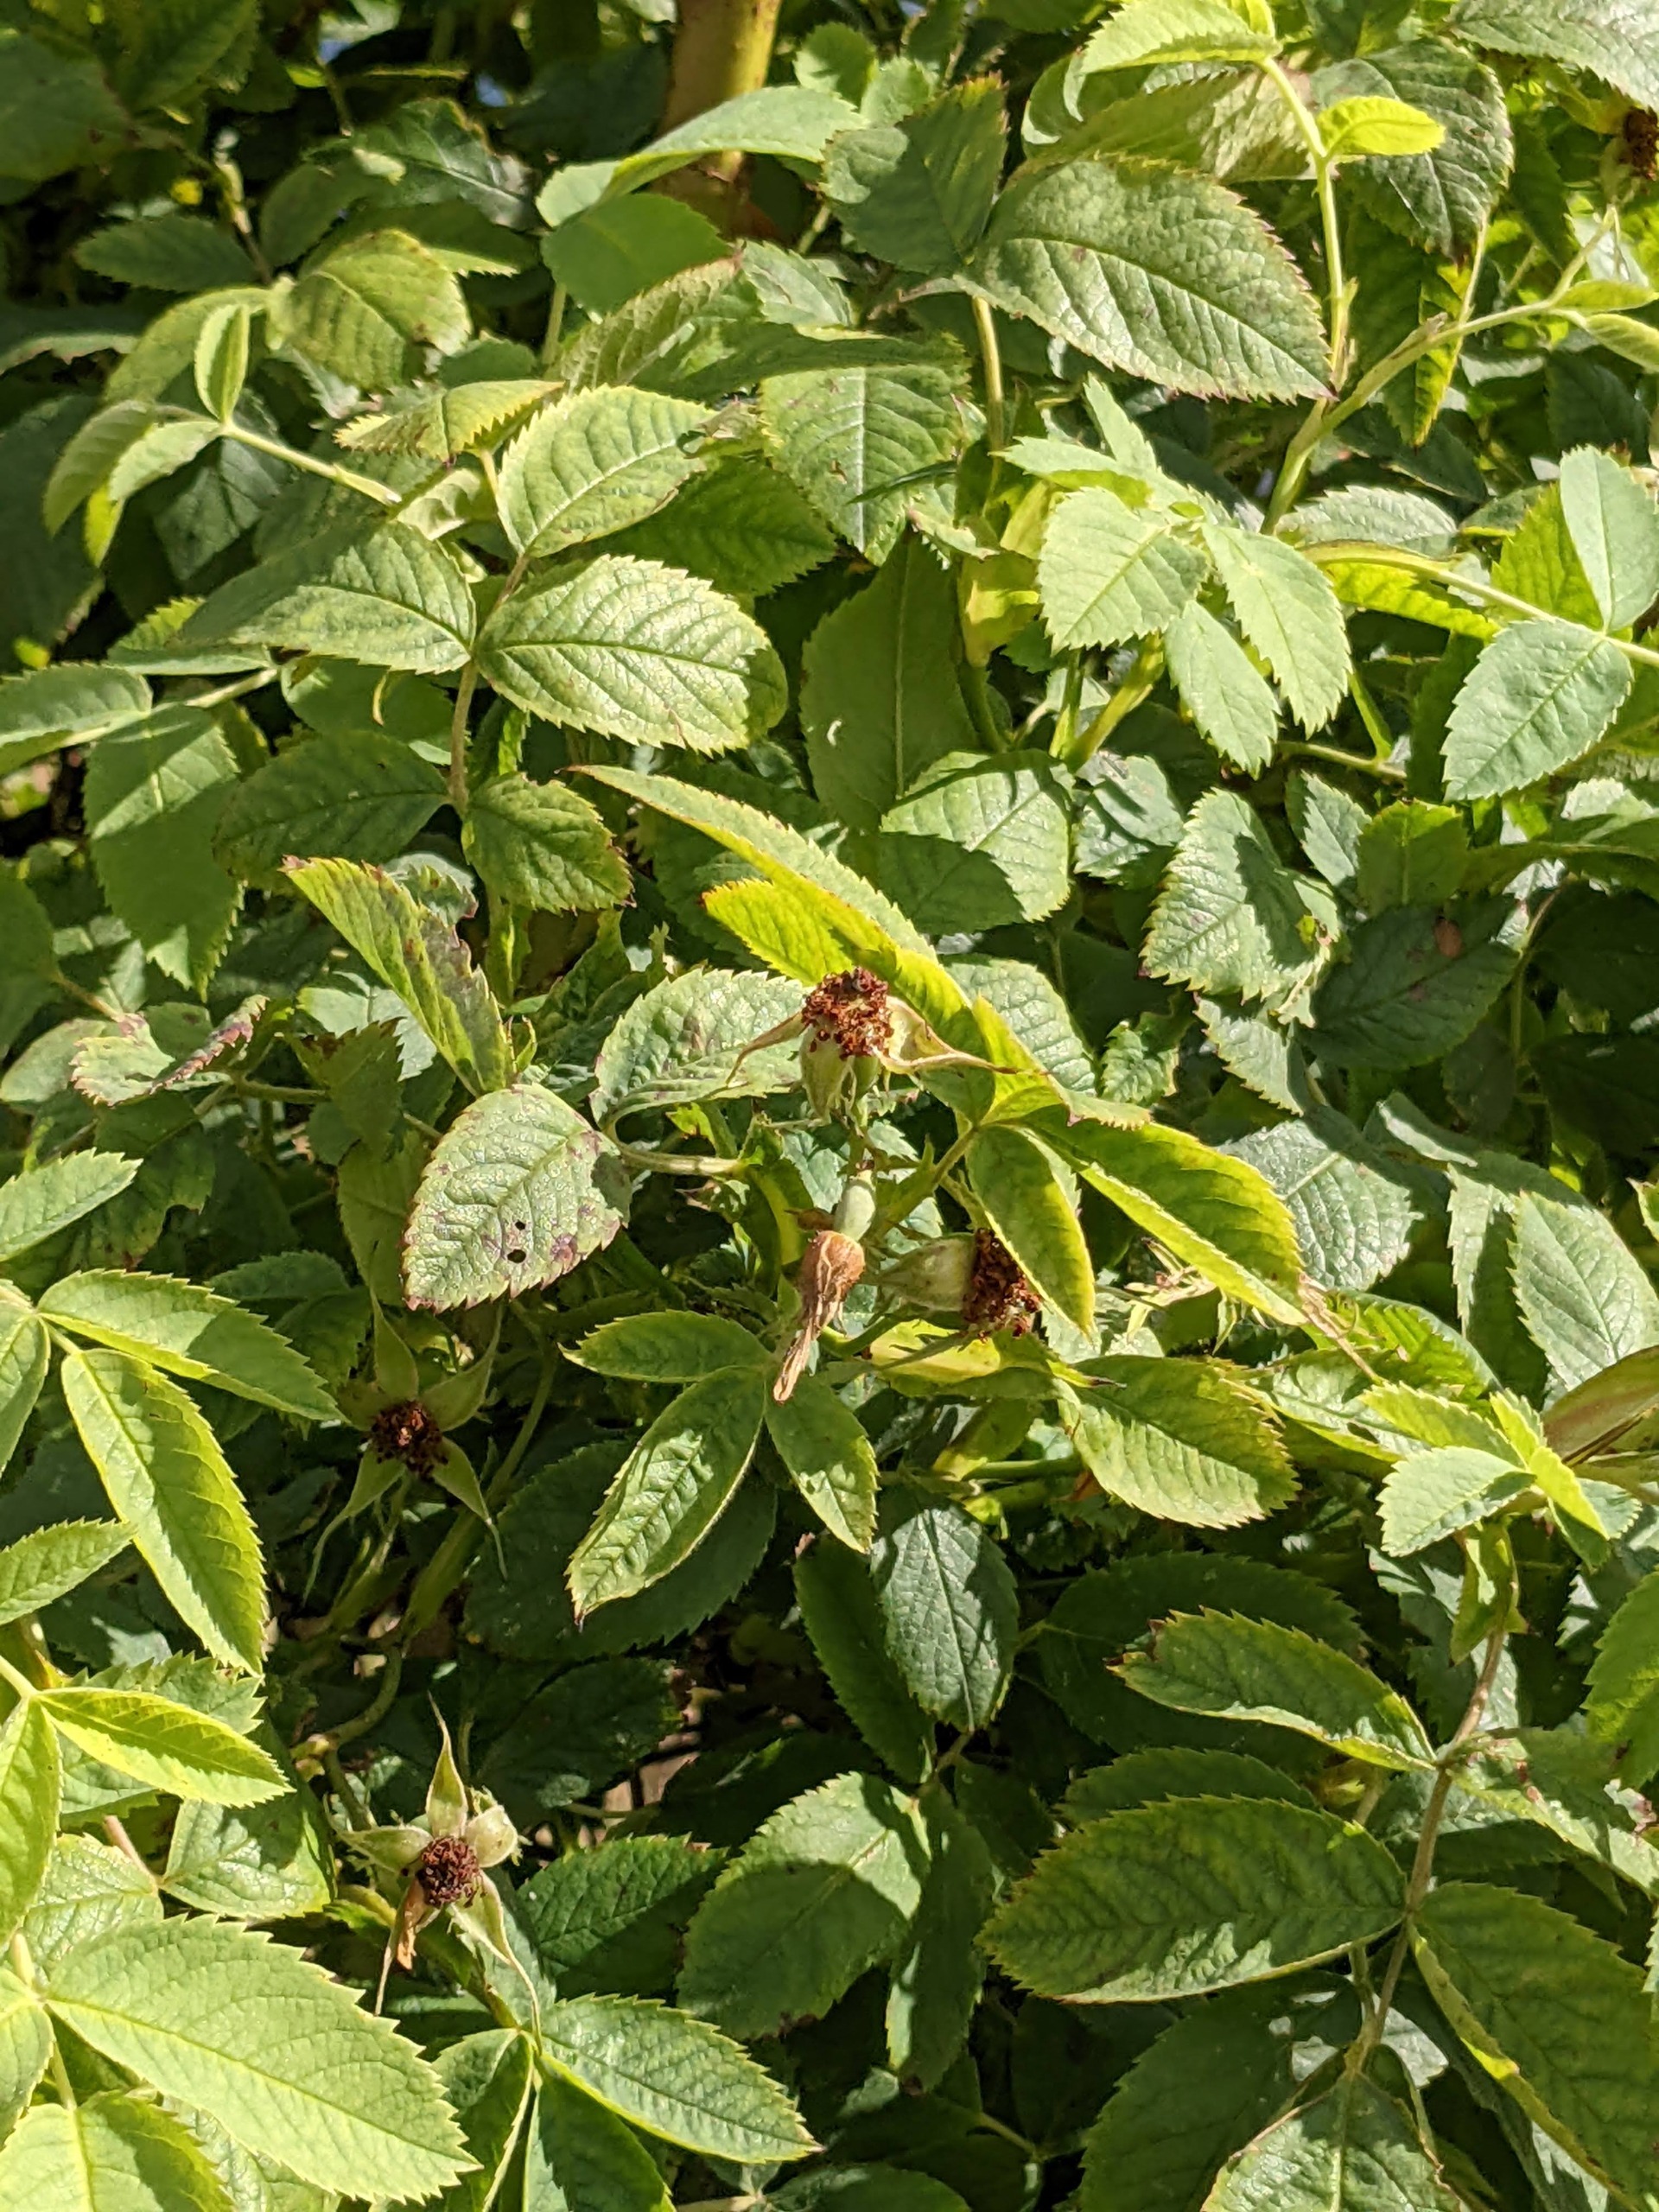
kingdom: Plantae
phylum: Tracheophyta
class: Magnoliopsida
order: Rosales
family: Rosaceae
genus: Rosa
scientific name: Rosa corymbifera
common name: Håret hunde-rose
